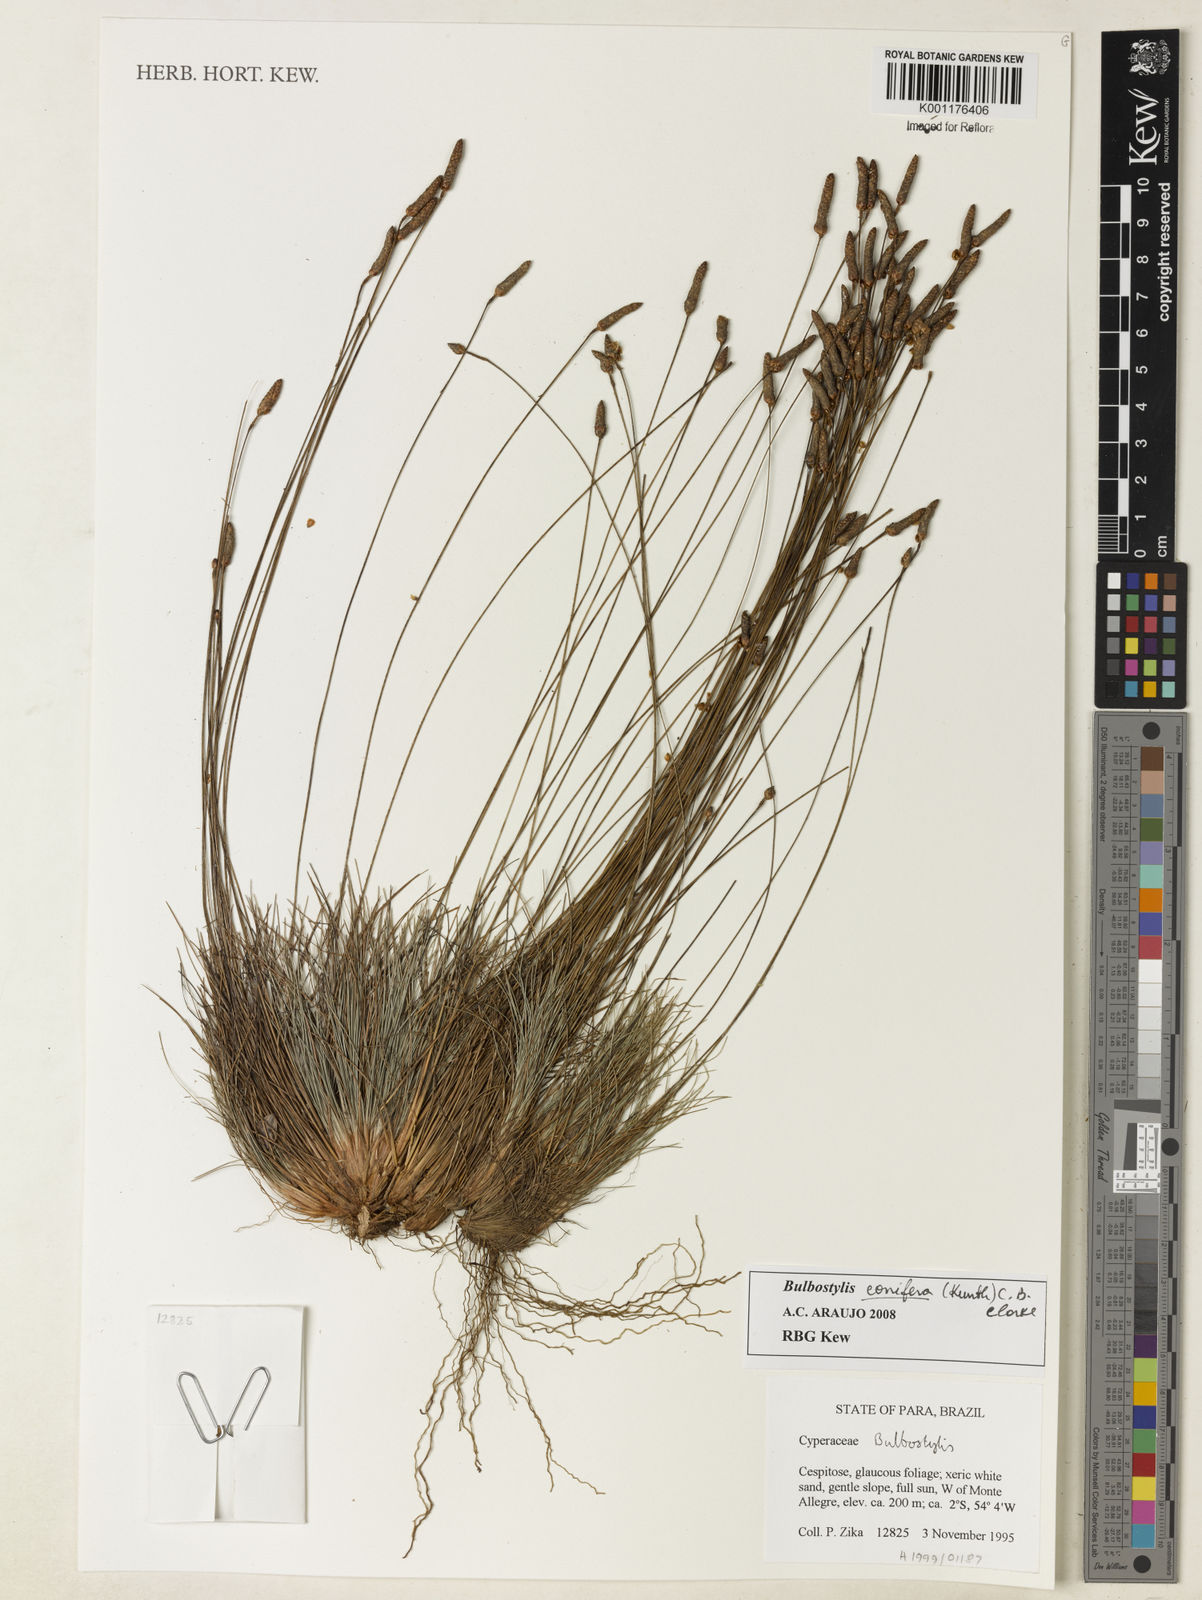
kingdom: Plantae
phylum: Tracheophyta
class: Liliopsida
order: Poales
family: Cyperaceae
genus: Bulbostylis
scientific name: Bulbostylis conifera
